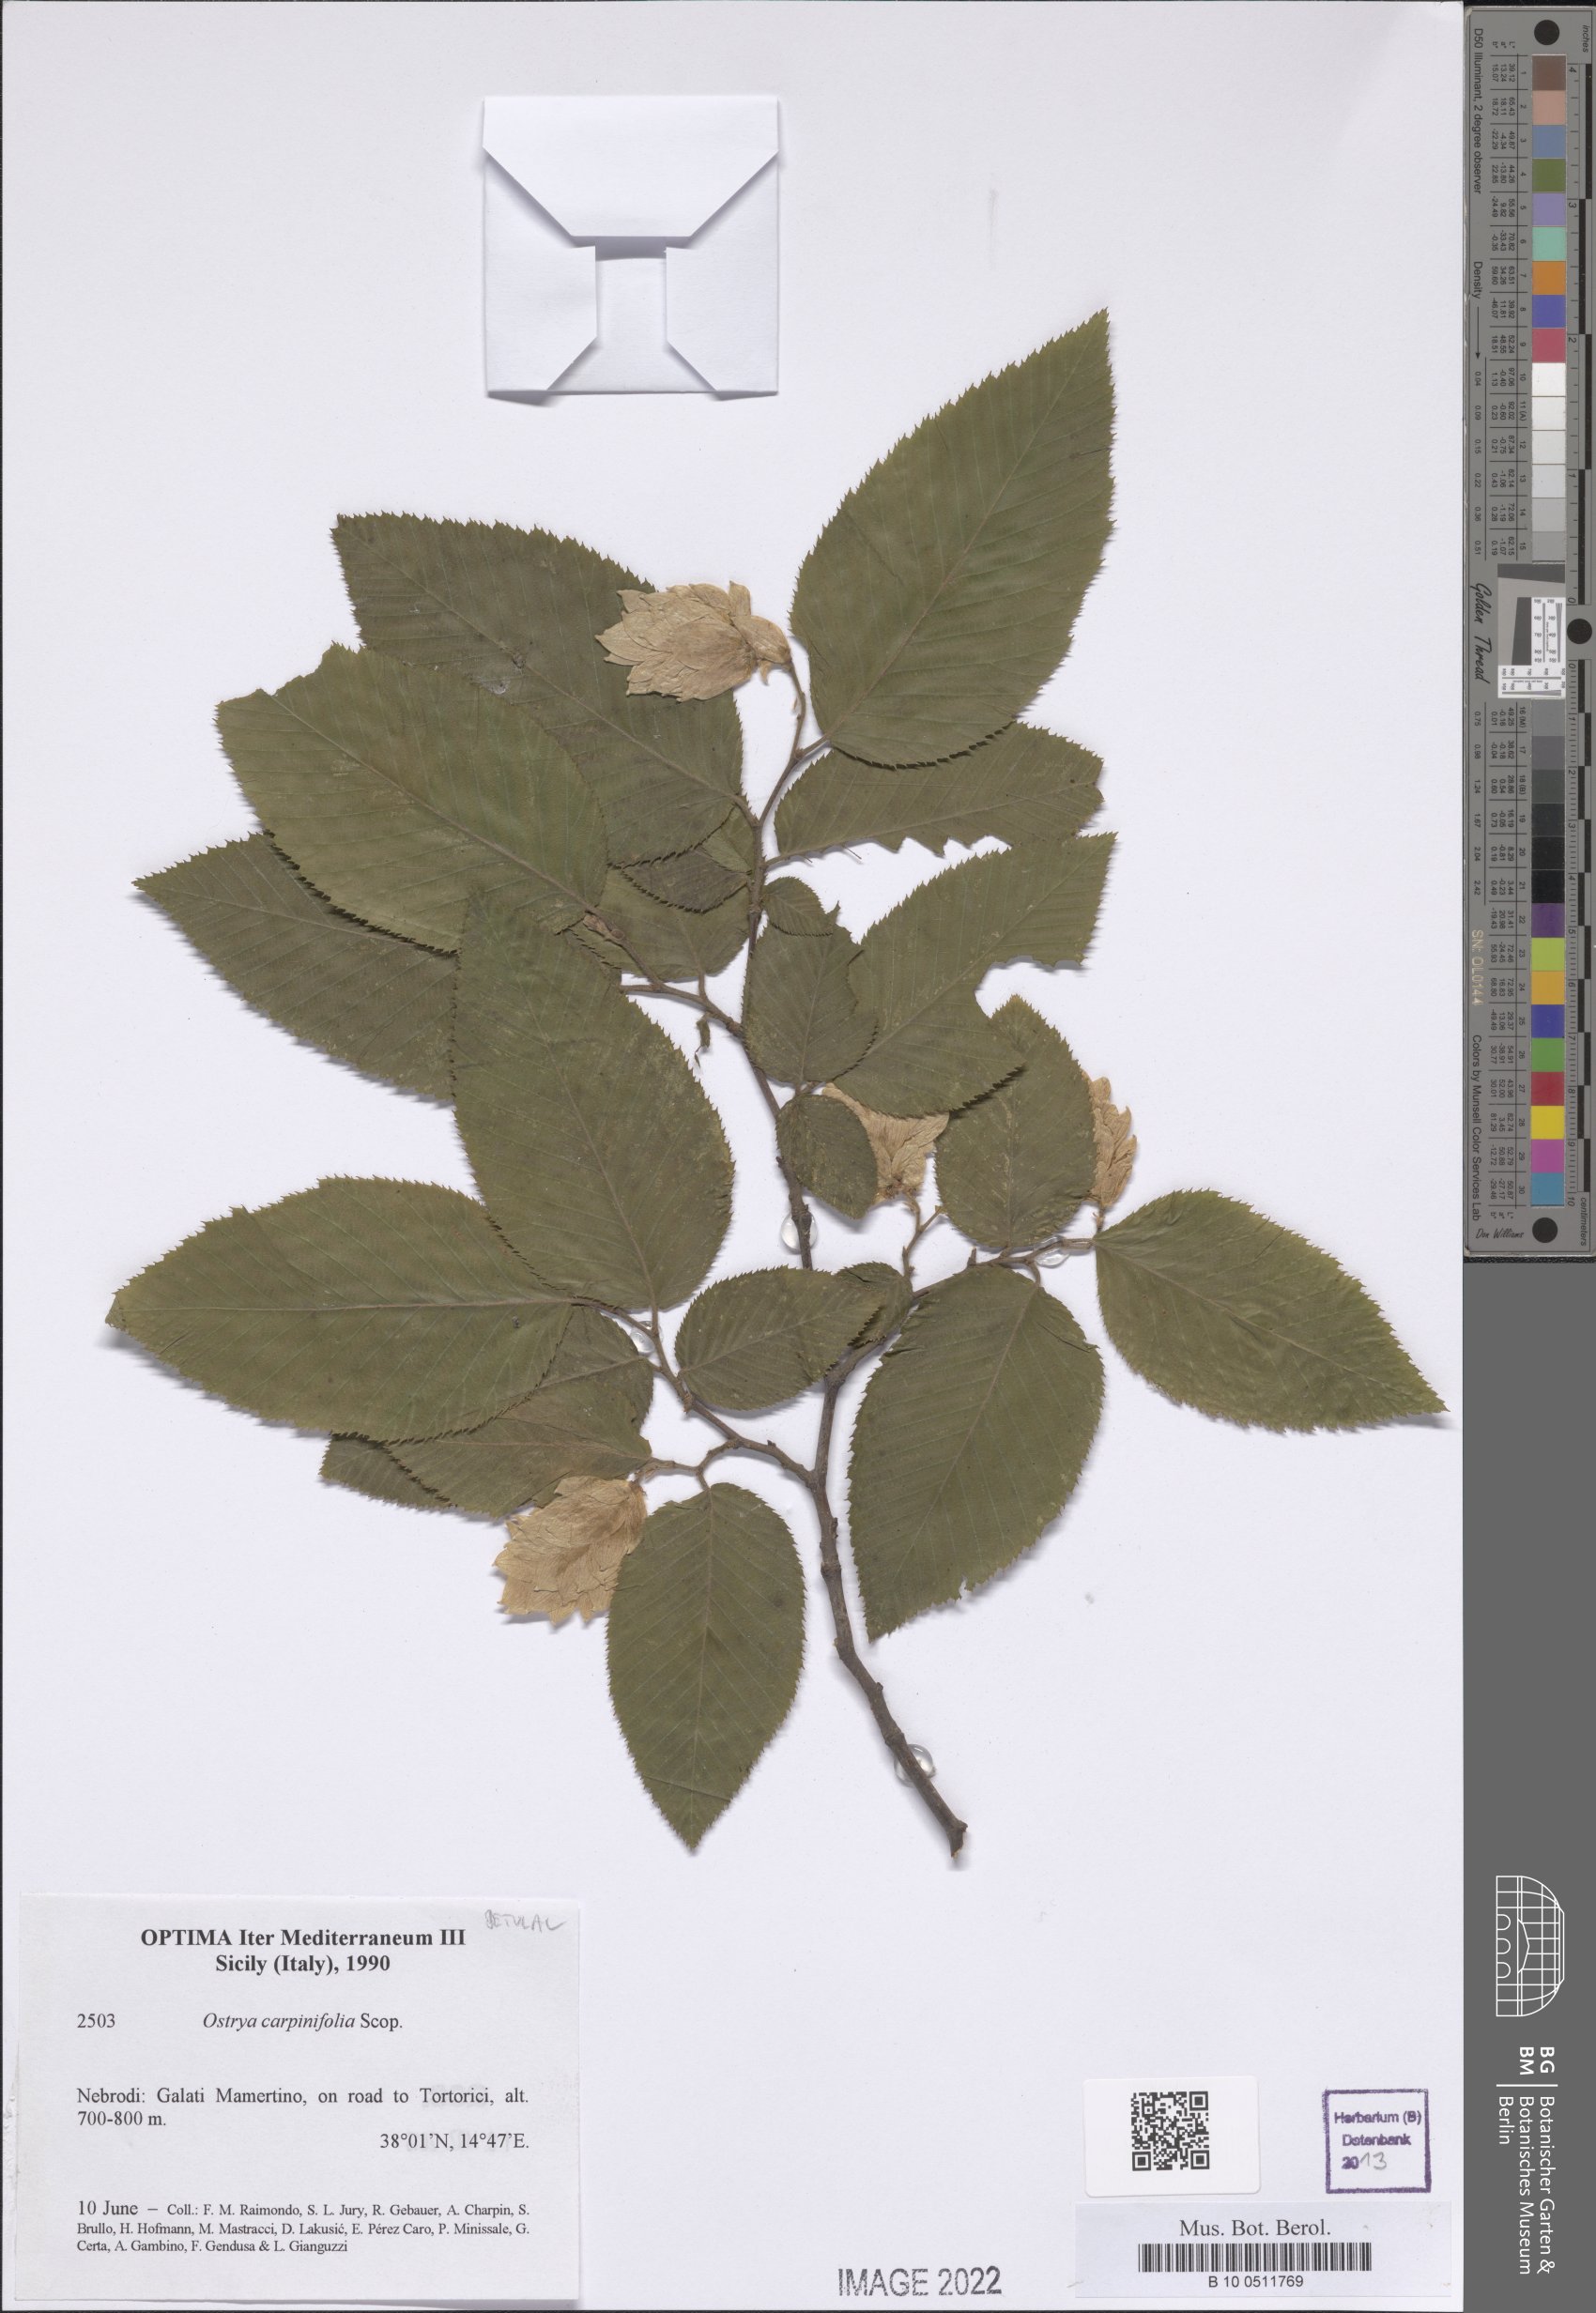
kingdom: Plantae
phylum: Tracheophyta
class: Magnoliopsida
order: Fagales
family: Betulaceae
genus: Ostrya
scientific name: Ostrya carpinifolia
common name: European hop-hornbeam
